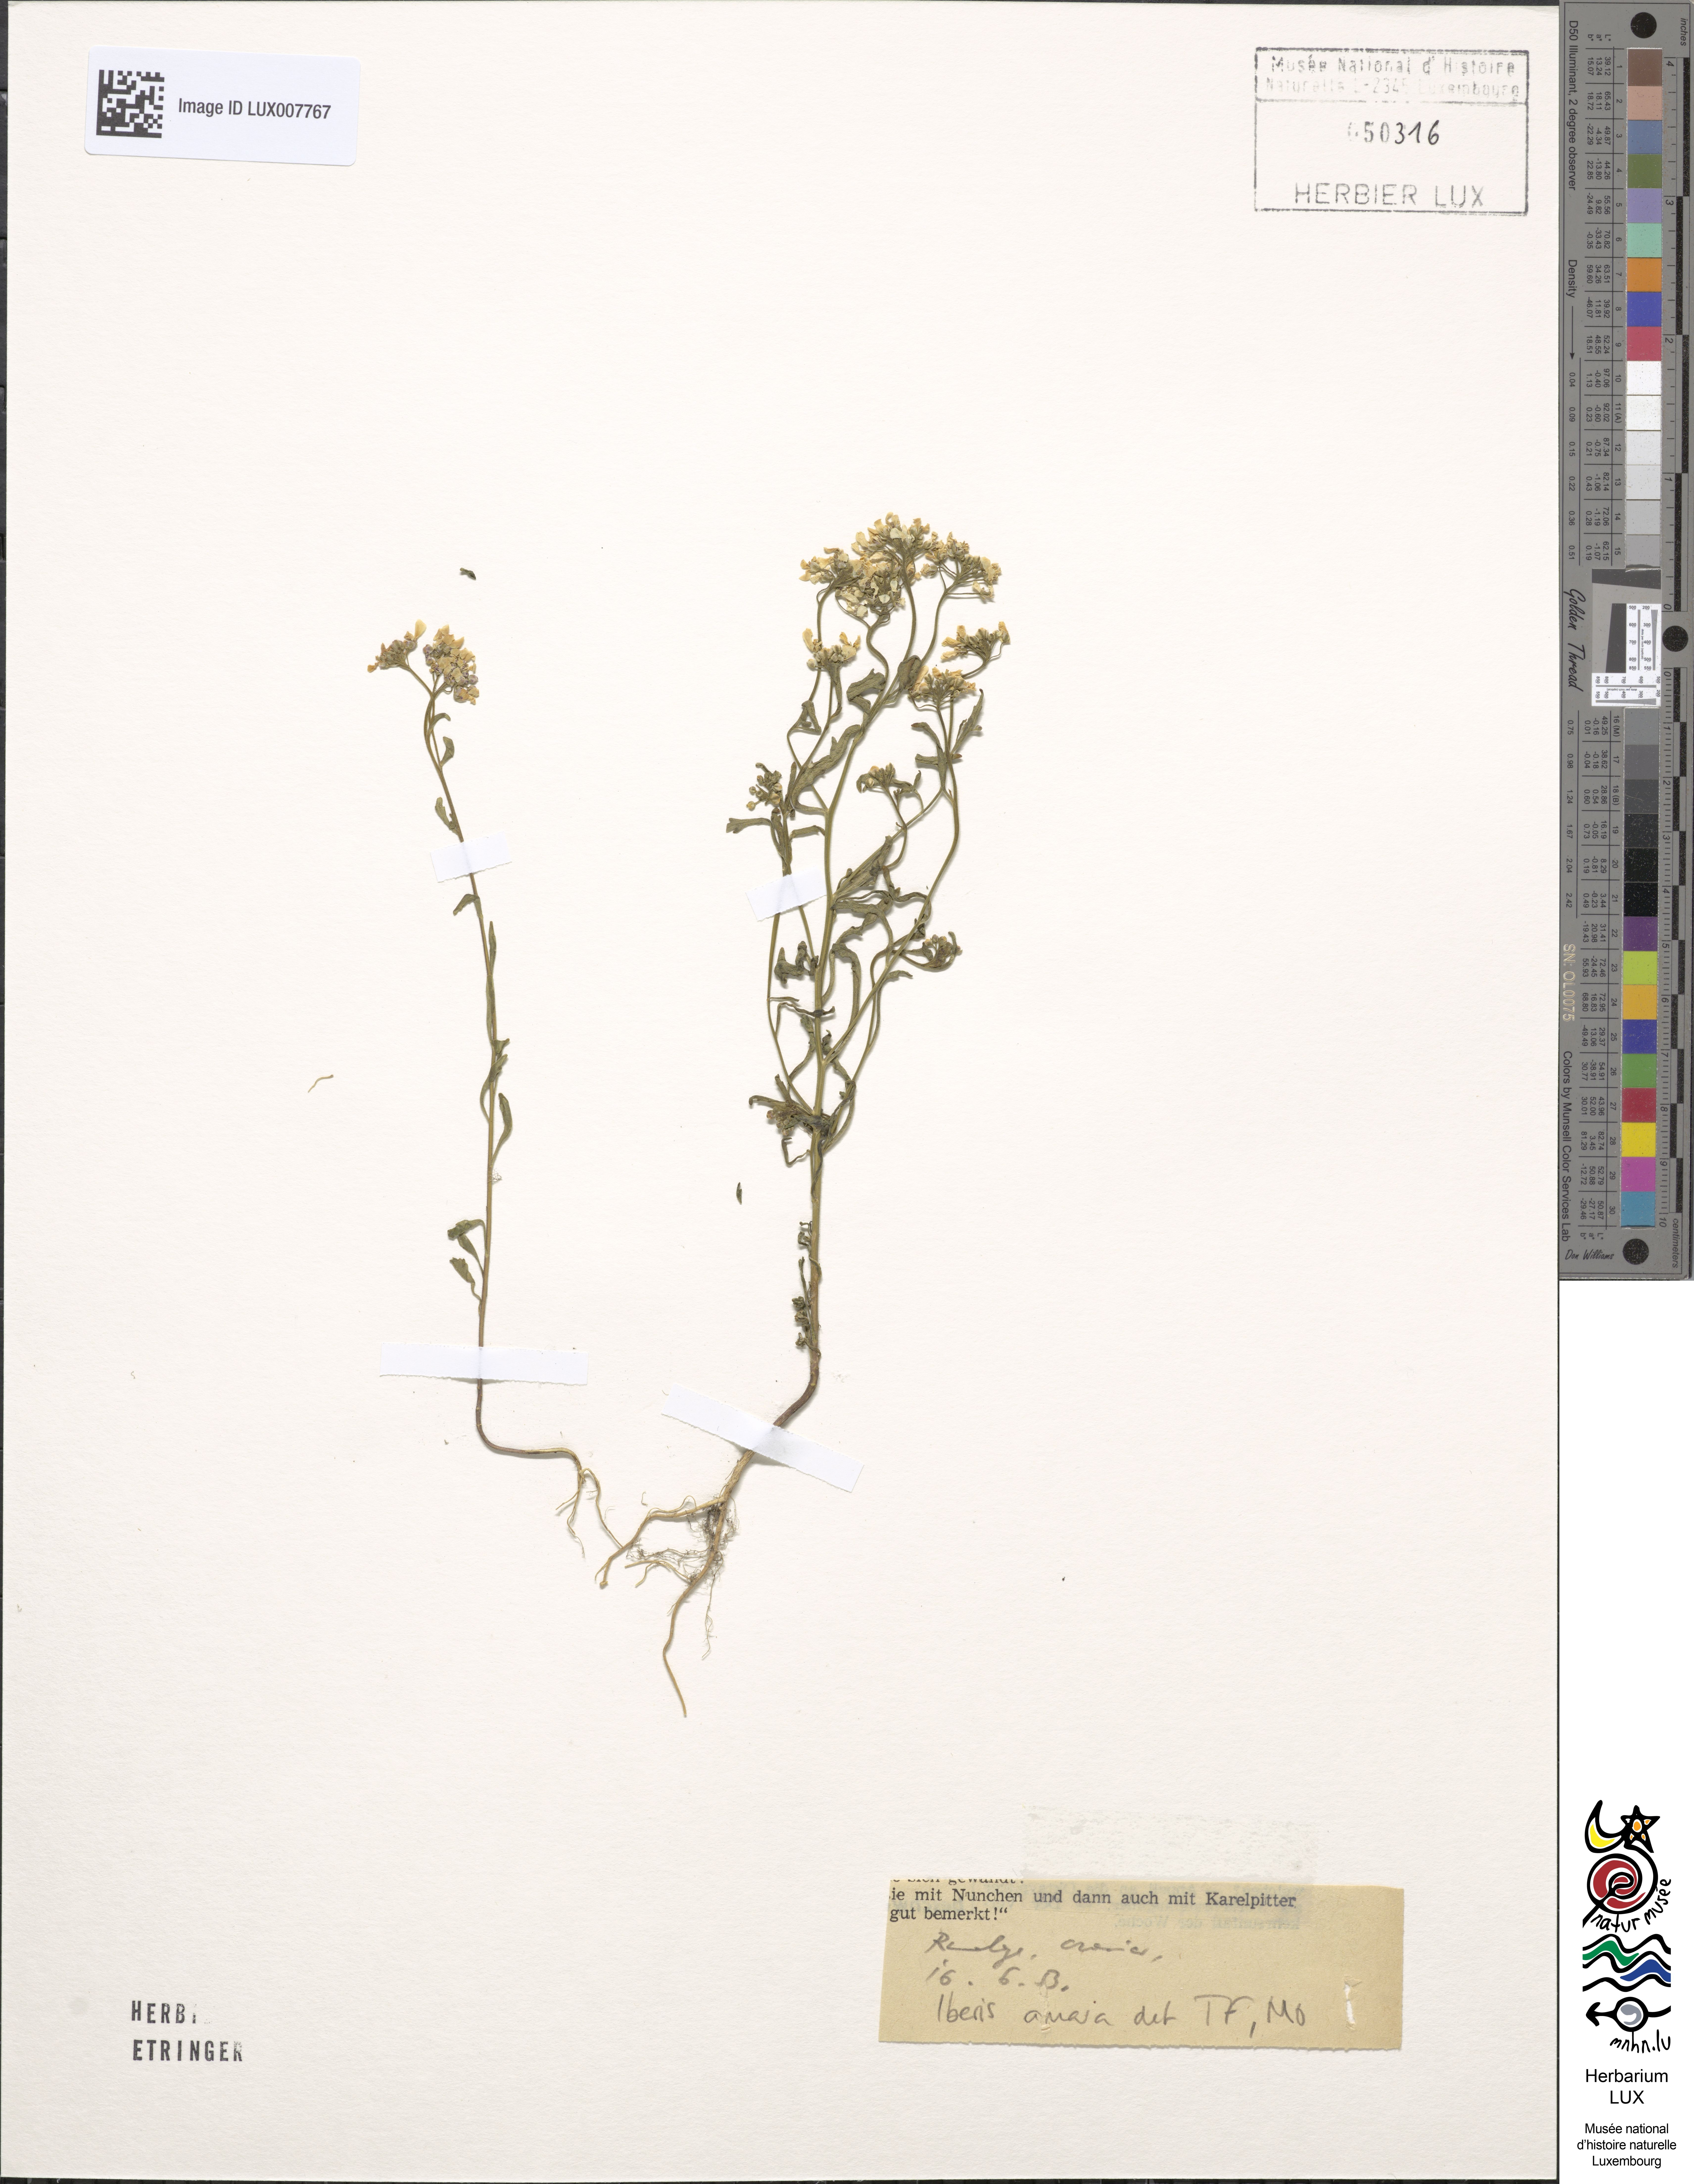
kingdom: Plantae
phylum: Tracheophyta
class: Magnoliopsida
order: Brassicales
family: Brassicaceae
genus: Iberis
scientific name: Iberis amara
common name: Annual candytuft
